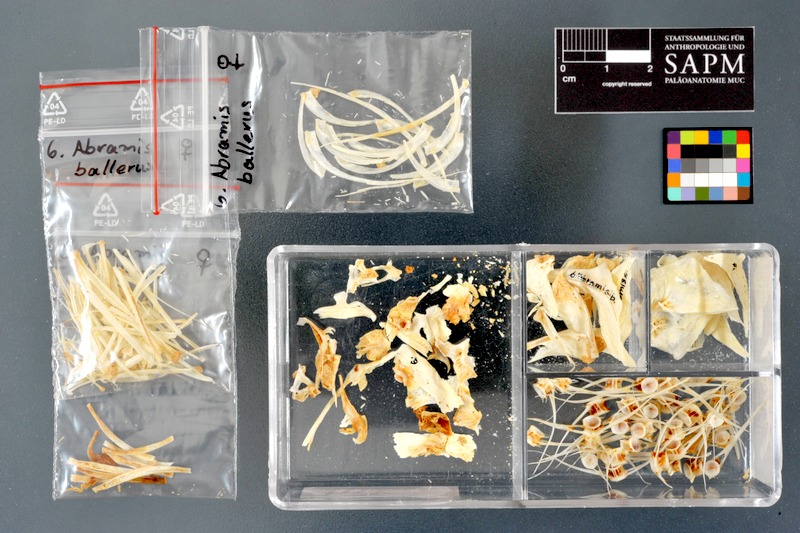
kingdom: Animalia
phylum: Chordata
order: Cypriniformes
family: Cyprinidae
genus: Ballerus
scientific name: Ballerus ballerus
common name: Blue bream
